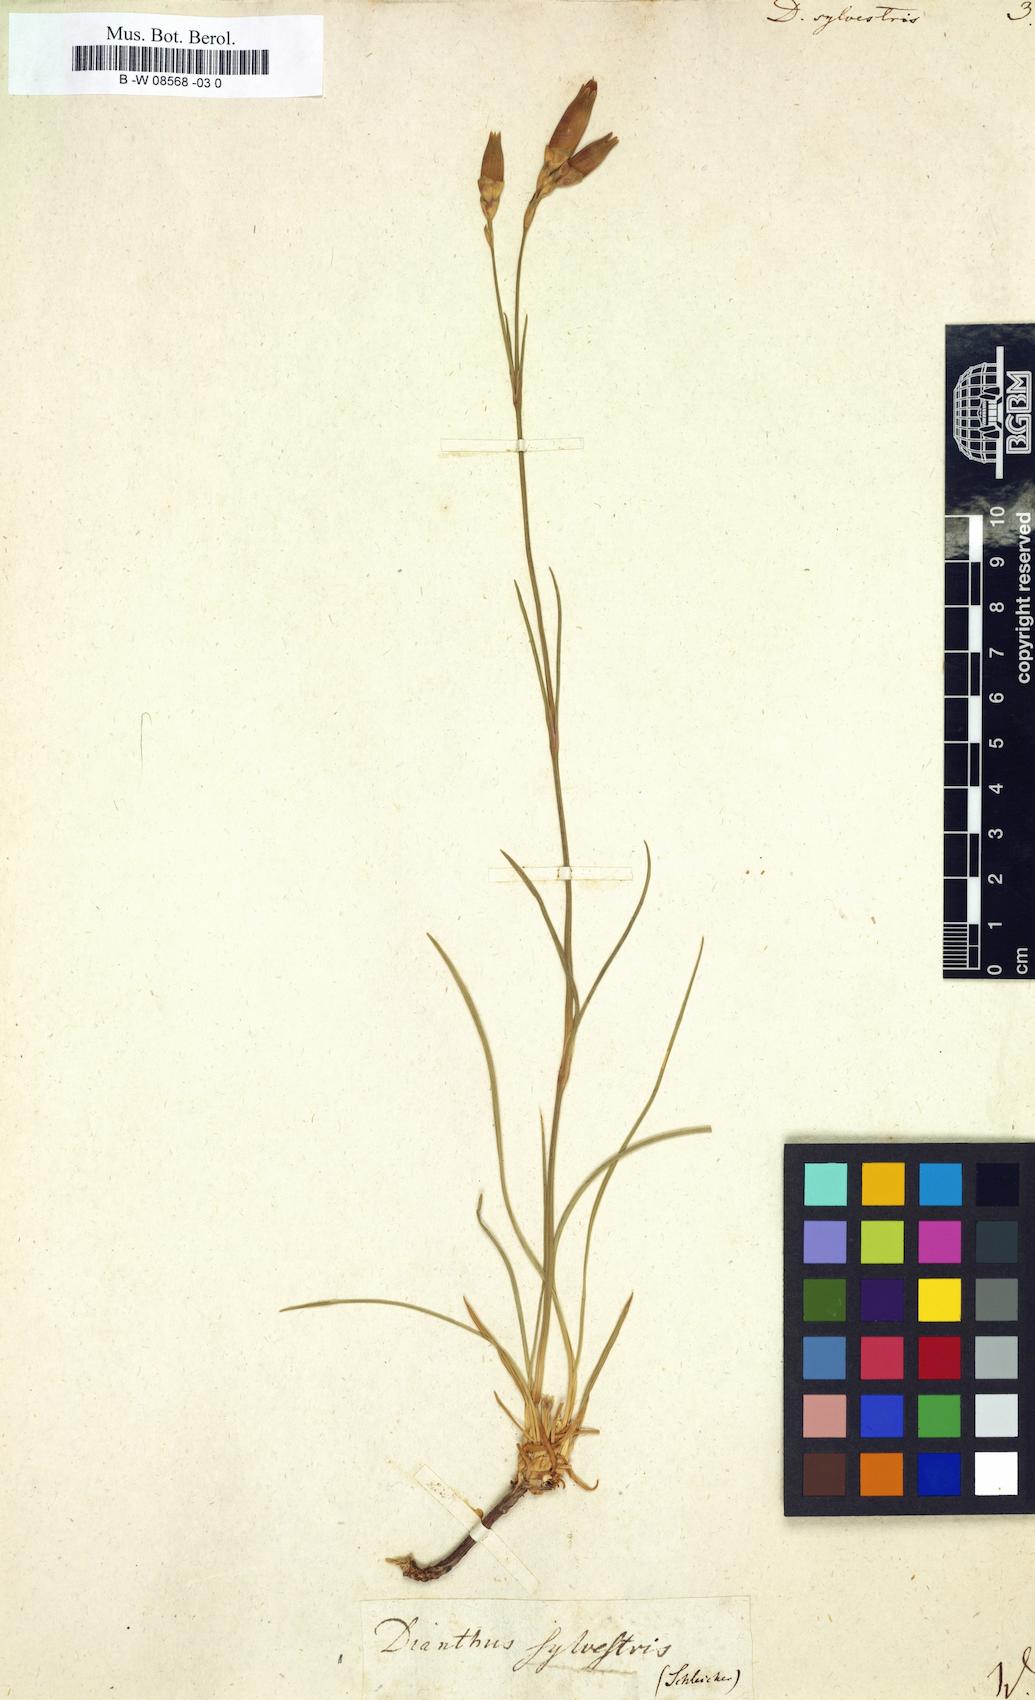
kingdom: Plantae
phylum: Tracheophyta
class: Magnoliopsida
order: Caryophyllales
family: Caryophyllaceae
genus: Dianthus
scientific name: Dianthus sylvestris
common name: Wood pink
